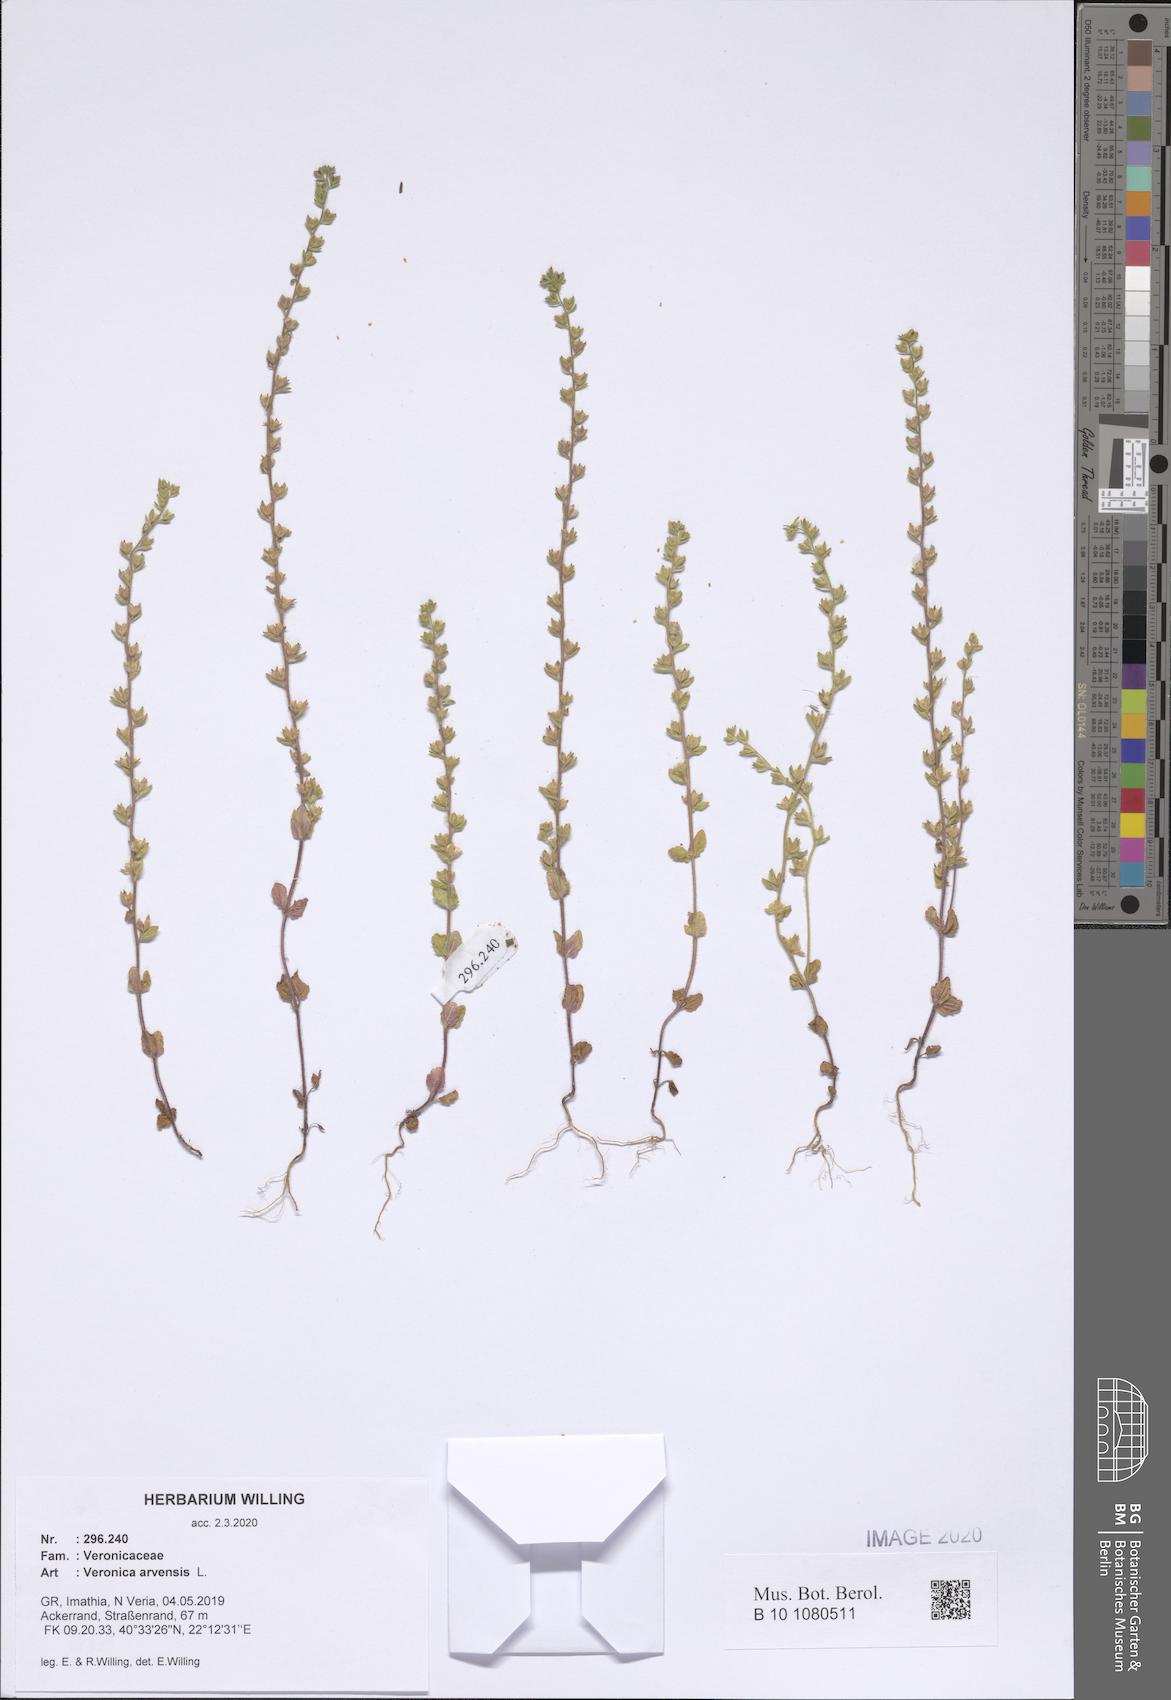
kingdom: Plantae
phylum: Tracheophyta
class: Magnoliopsida
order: Lamiales
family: Plantaginaceae
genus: Veronica
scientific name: Veronica arvensis
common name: Corn speedwell
